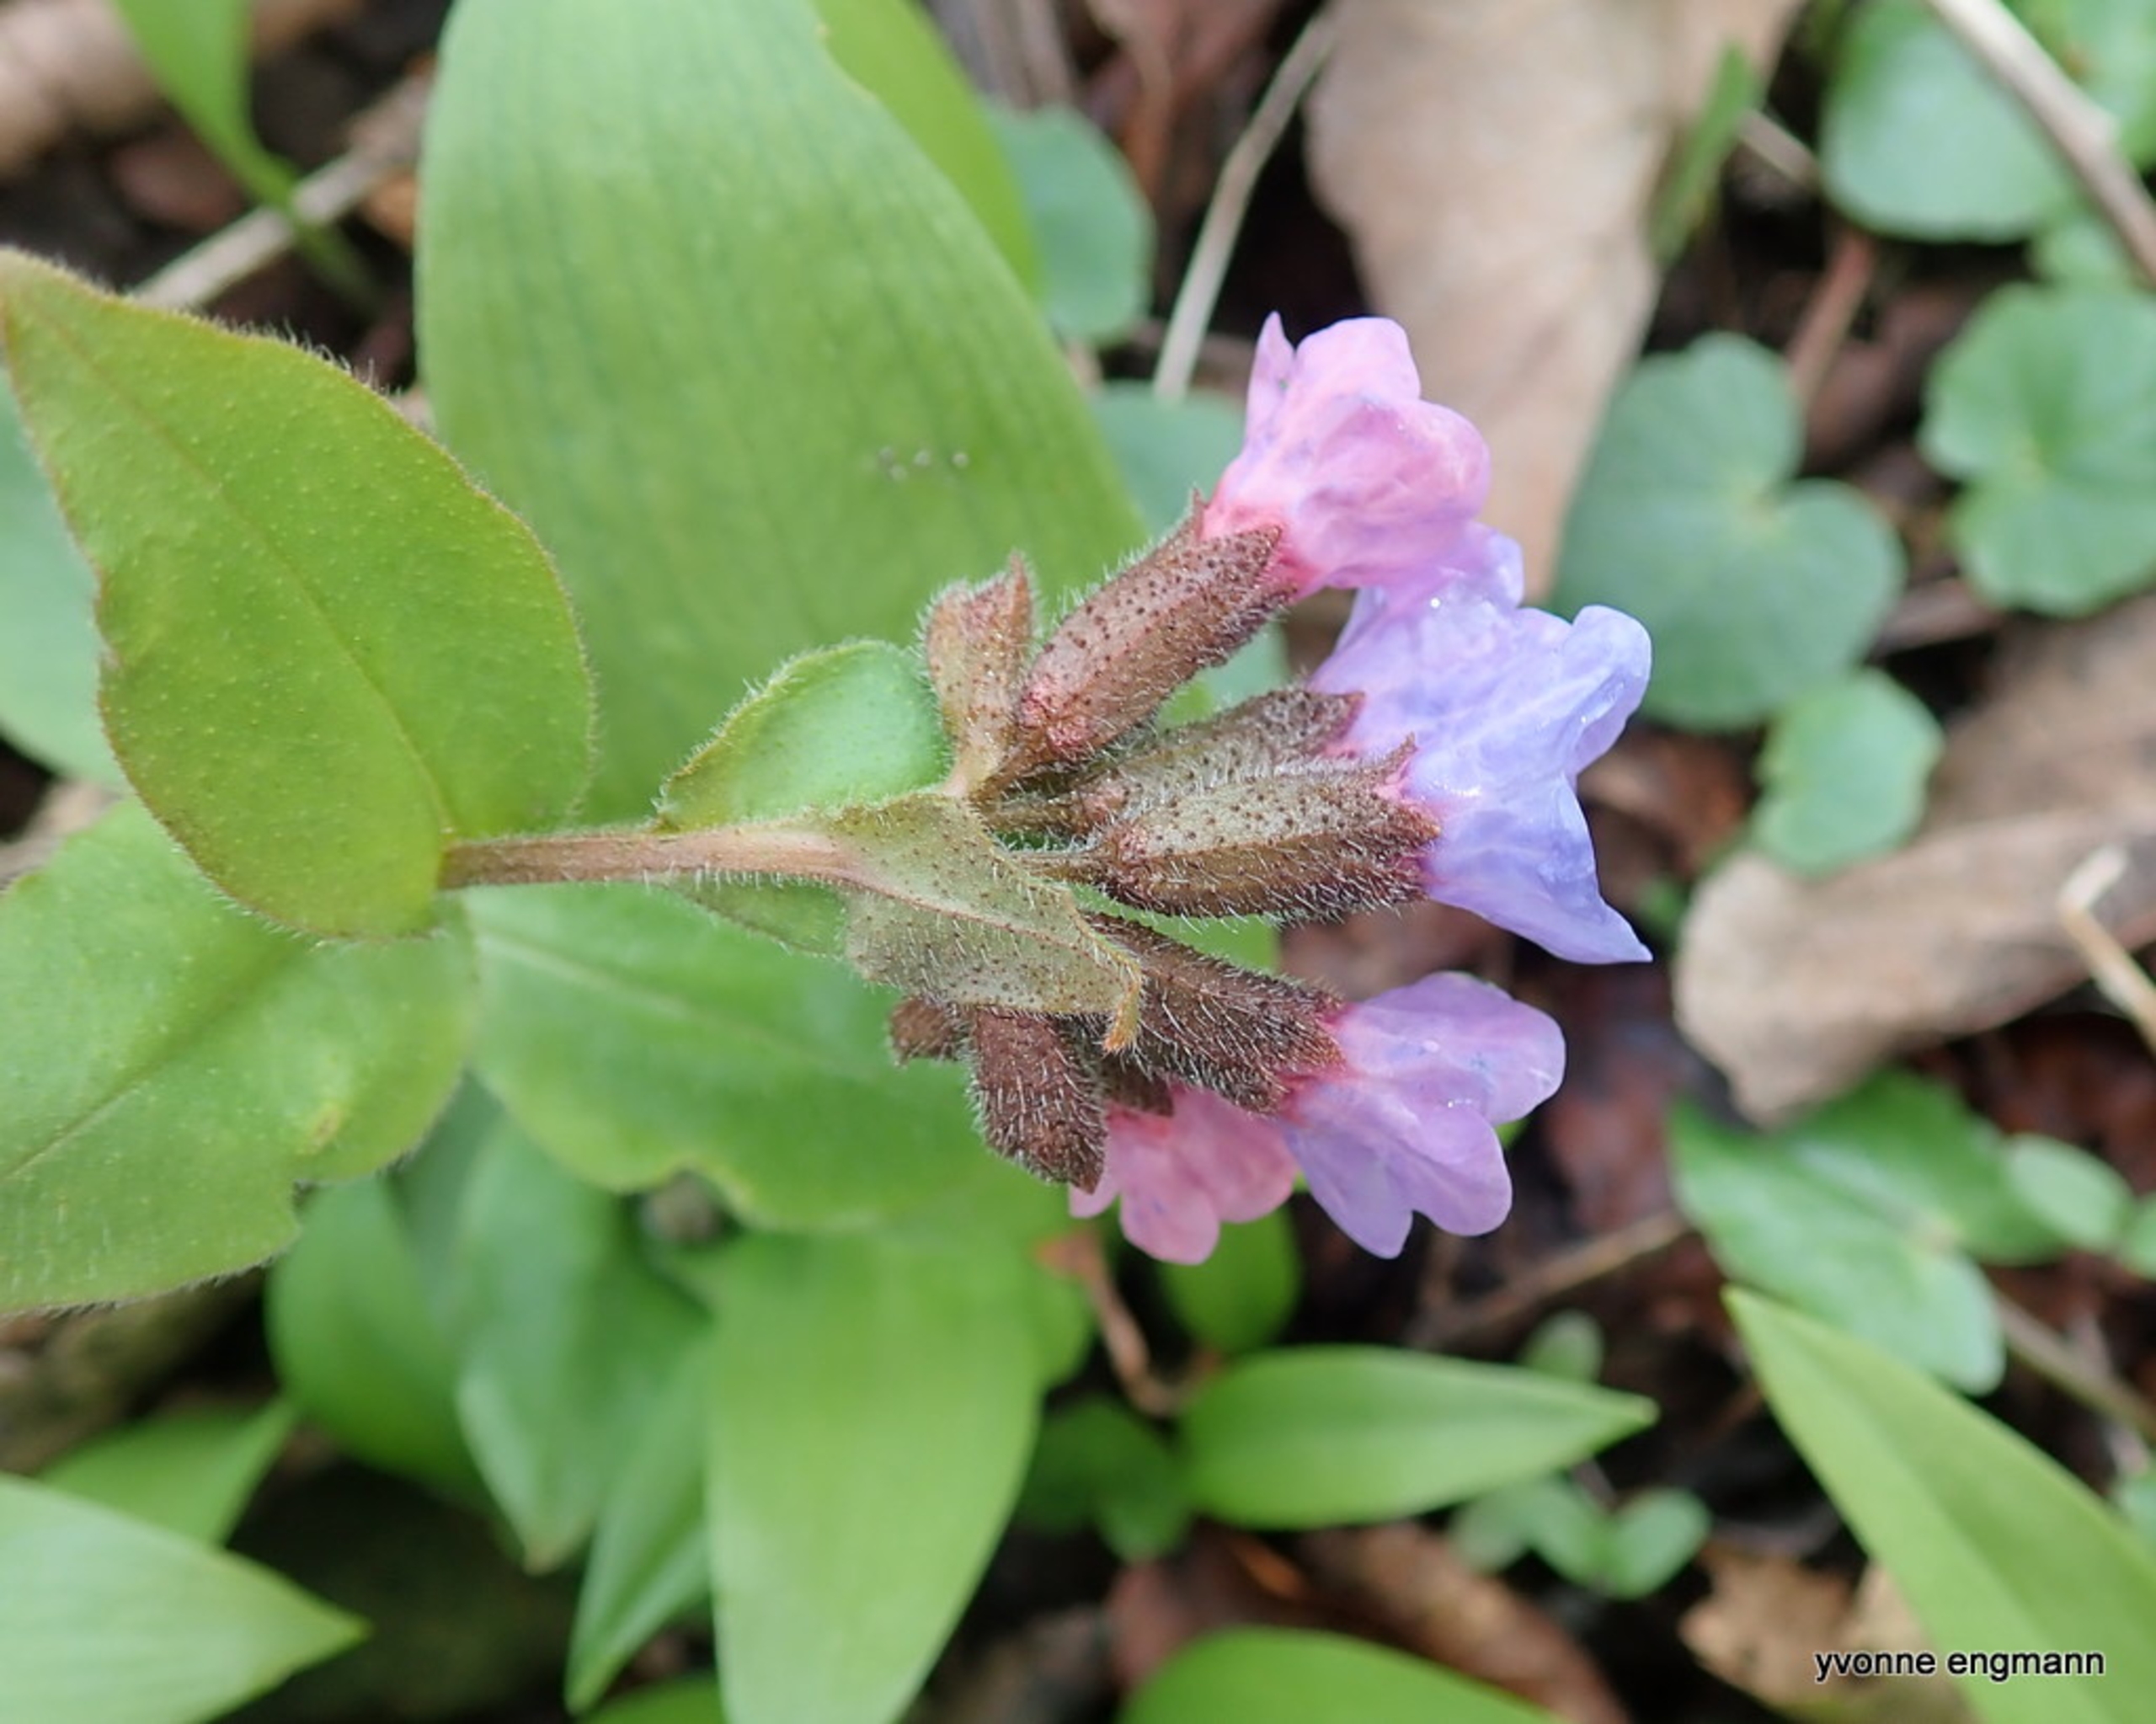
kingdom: Plantae
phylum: Tracheophyta
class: Magnoliopsida
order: Boraginales
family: Boraginaceae
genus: Pulmonaria
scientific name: Pulmonaria obscura
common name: Almindelig lungeurt
